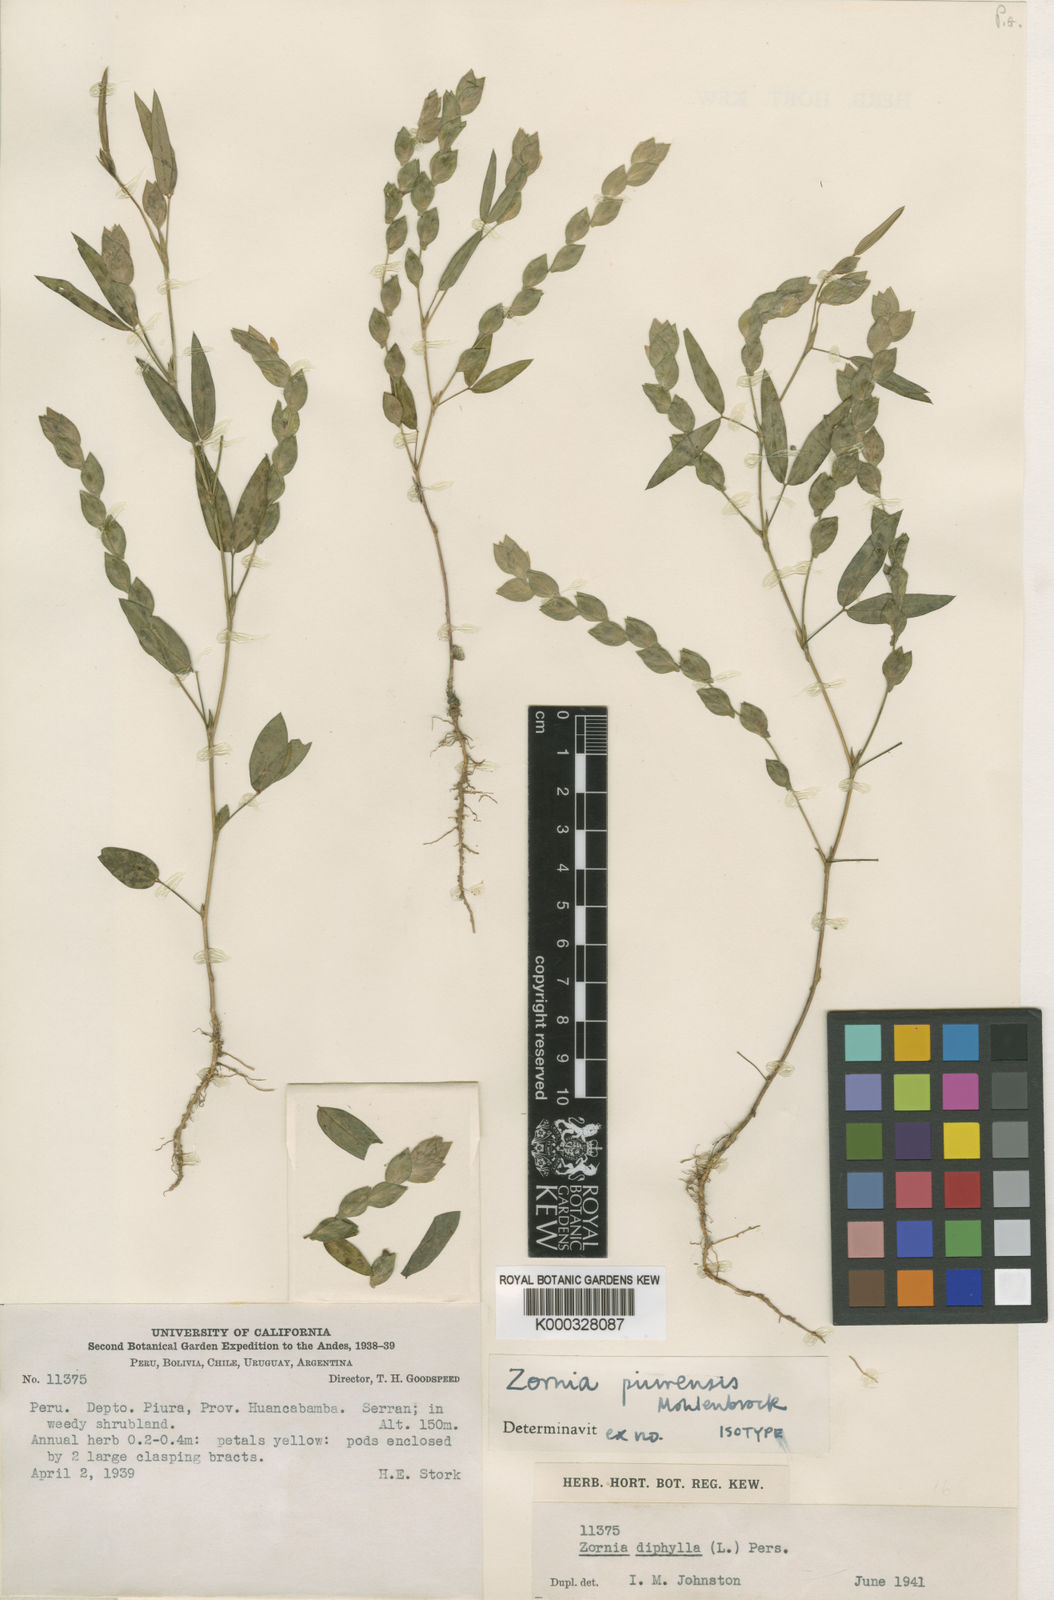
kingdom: Plantae
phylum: Tracheophyta
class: Magnoliopsida
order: Fabales
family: Fabaceae
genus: Zornia
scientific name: Zornia piurensis
